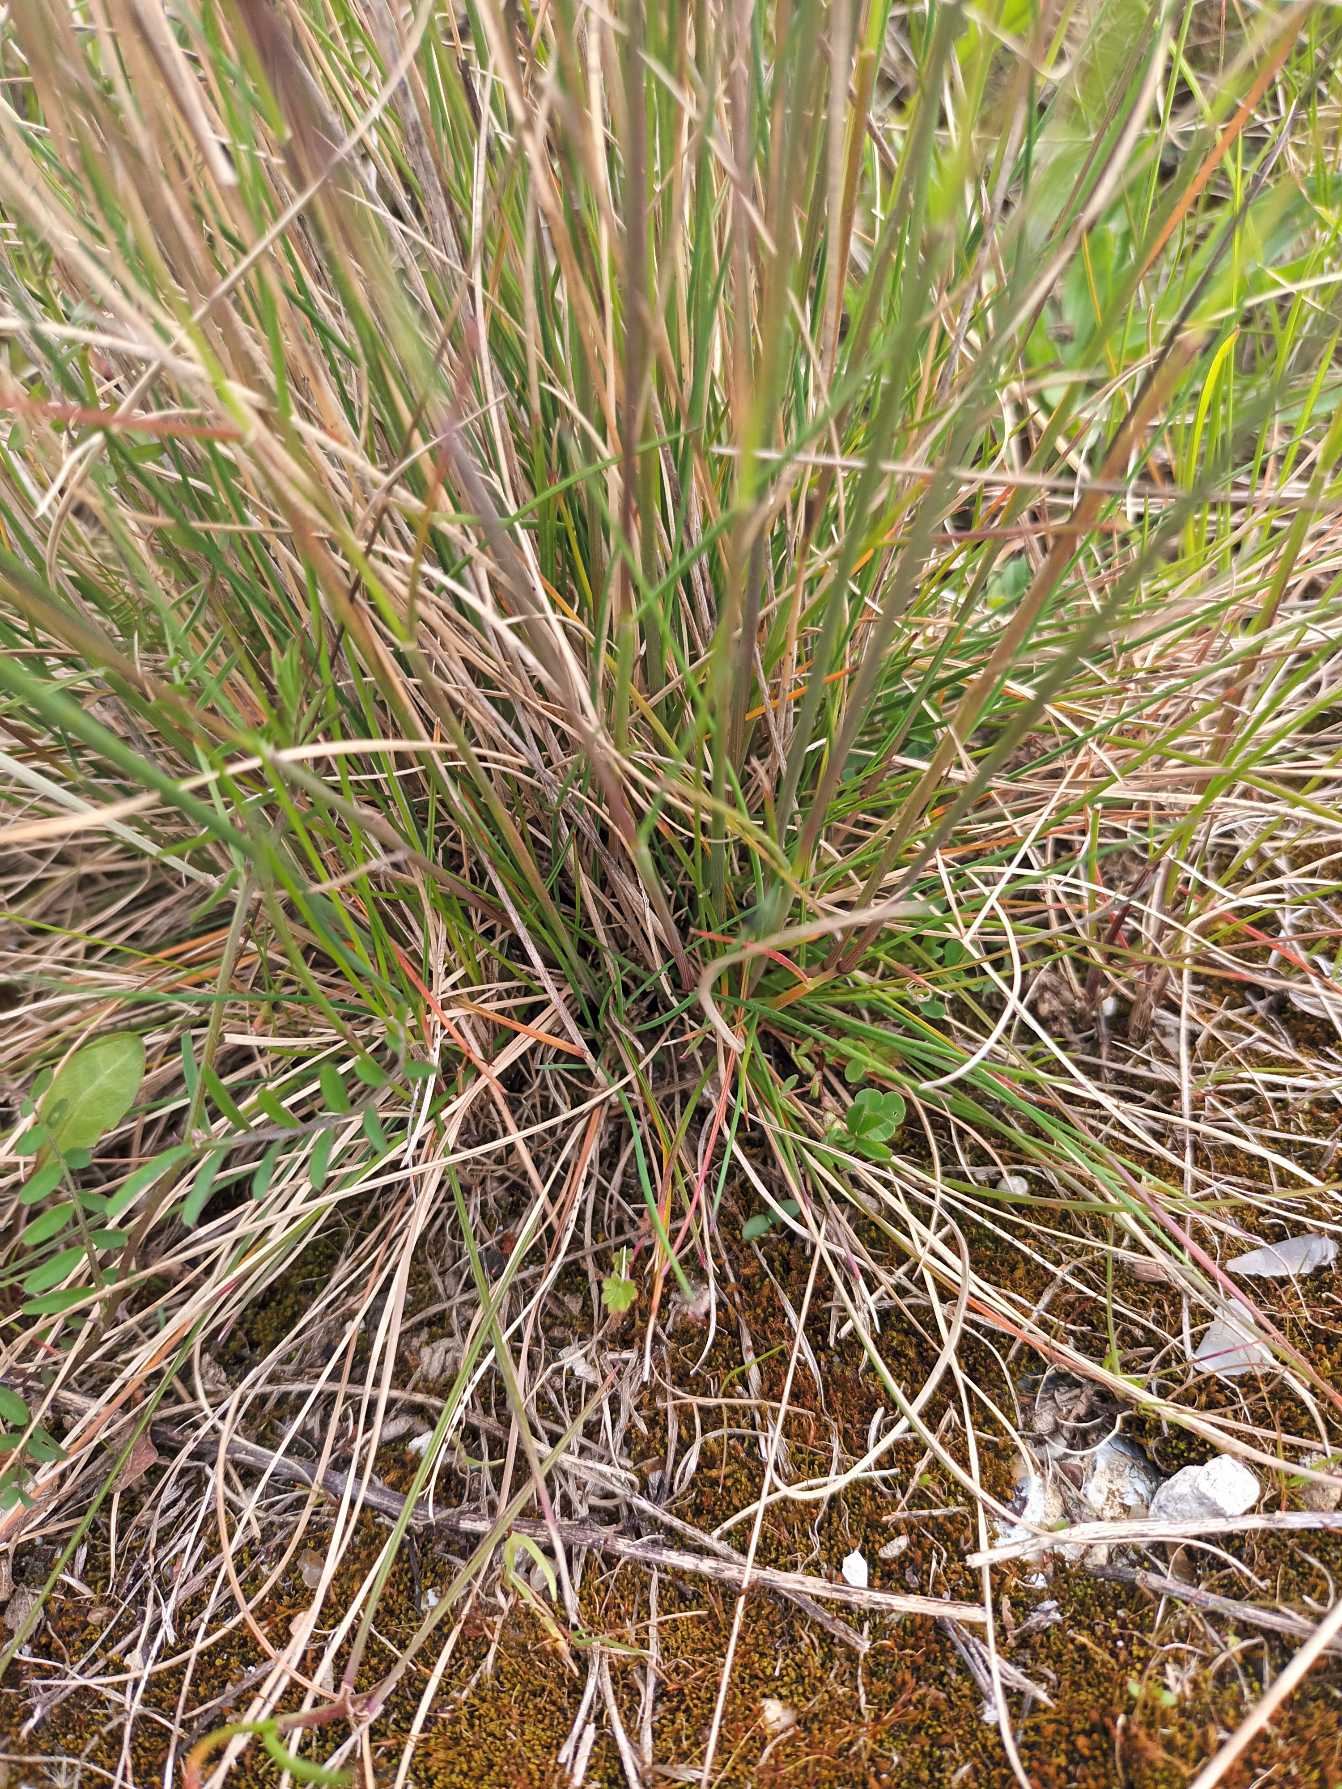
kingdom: Plantae
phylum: Tracheophyta
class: Liliopsida
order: Poales
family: Poaceae
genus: Festuca
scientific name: Festuca trachyphylla
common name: Bakke-svingel
